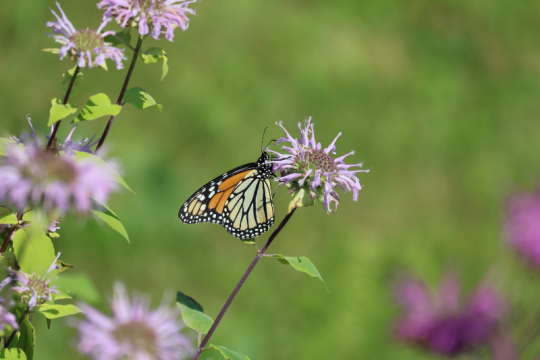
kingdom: Animalia
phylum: Arthropoda
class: Insecta
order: Lepidoptera
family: Nymphalidae
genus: Danaus
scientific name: Danaus plexippus
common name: Monarch
